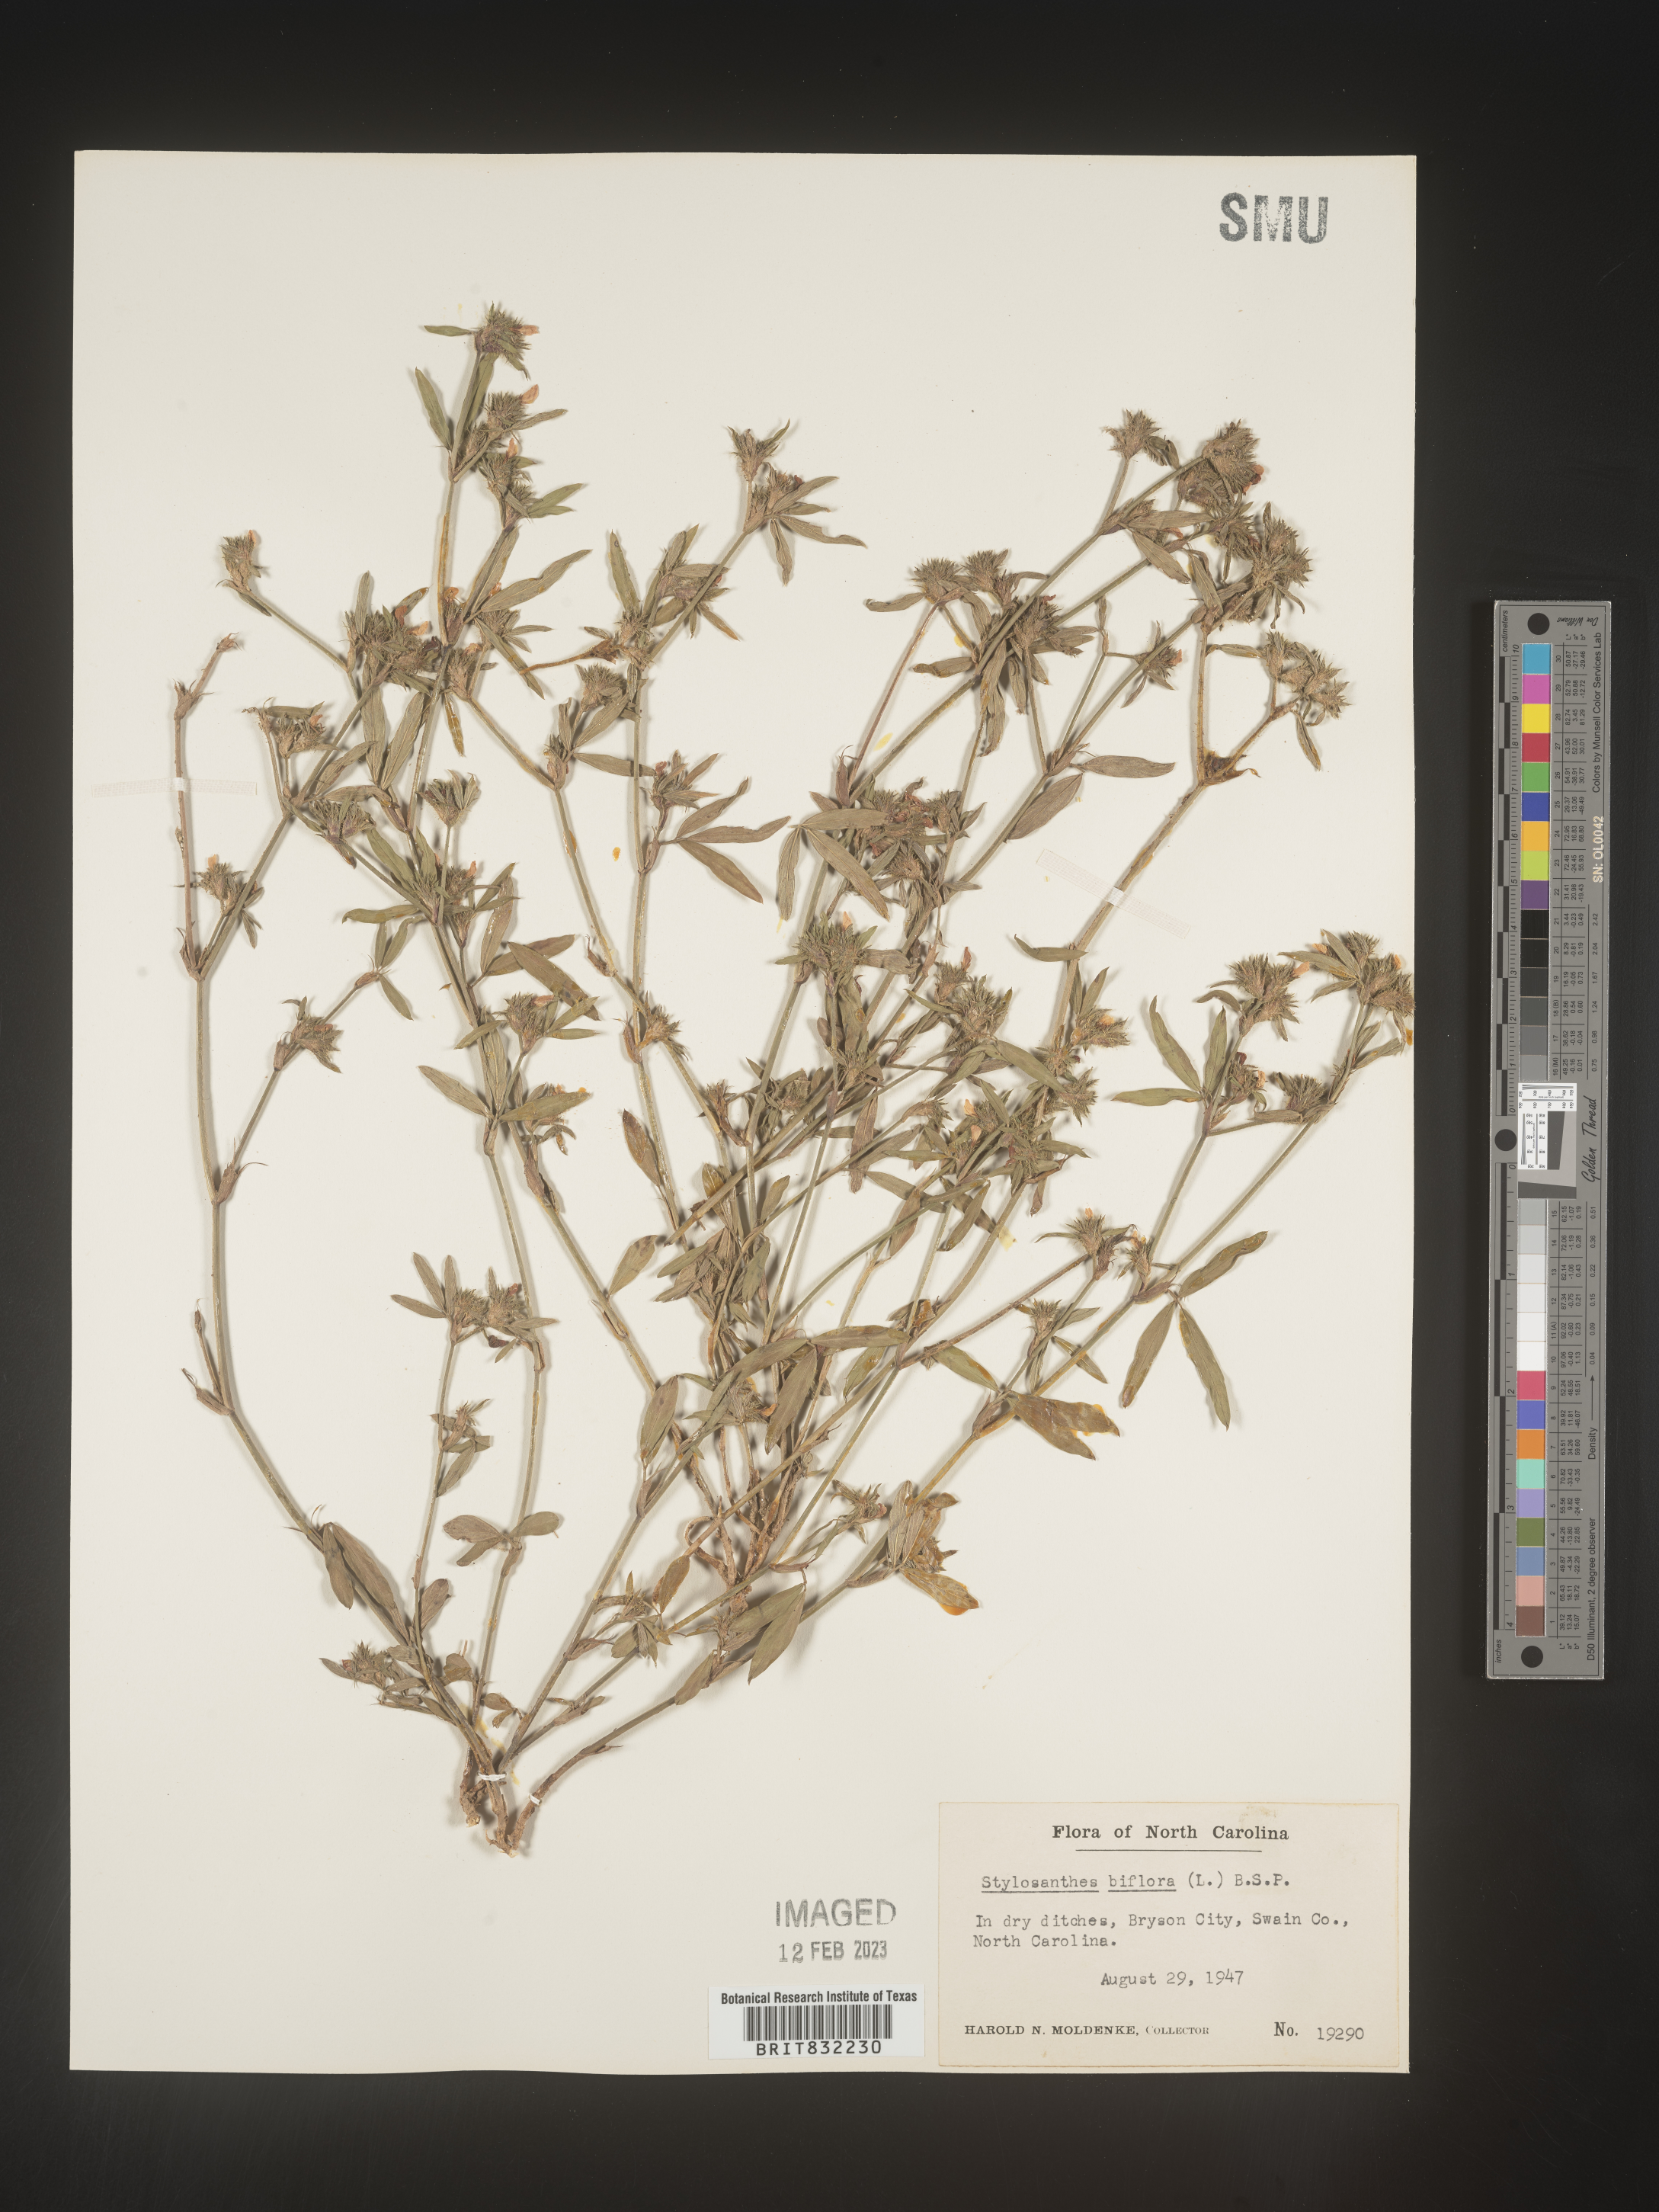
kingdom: Plantae
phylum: Tracheophyta
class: Magnoliopsida
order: Fabales
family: Fabaceae
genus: Stylosanthes
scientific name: Stylosanthes biflora
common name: Two-flower pencil-flower
